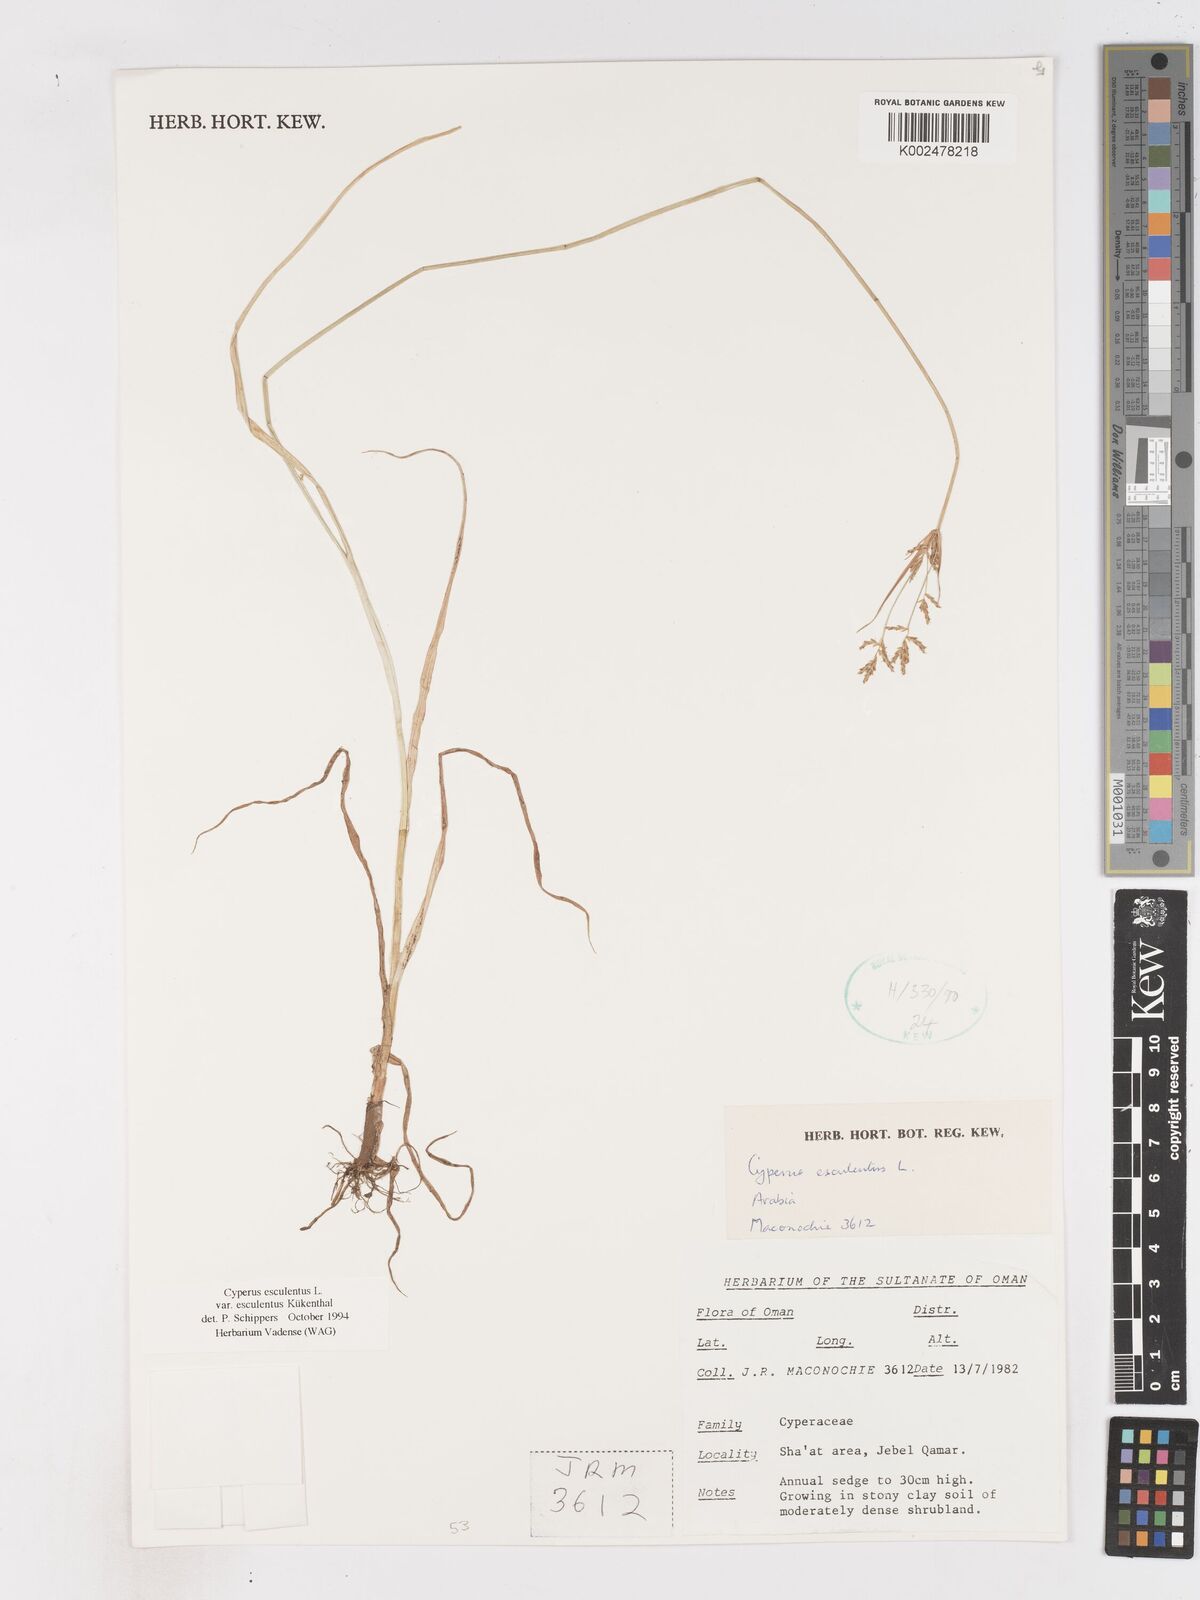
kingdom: Plantae
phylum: Tracheophyta
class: Liliopsida
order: Poales
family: Cyperaceae
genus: Cyperus
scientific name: Cyperus esculentus
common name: Yellow nutsedge
